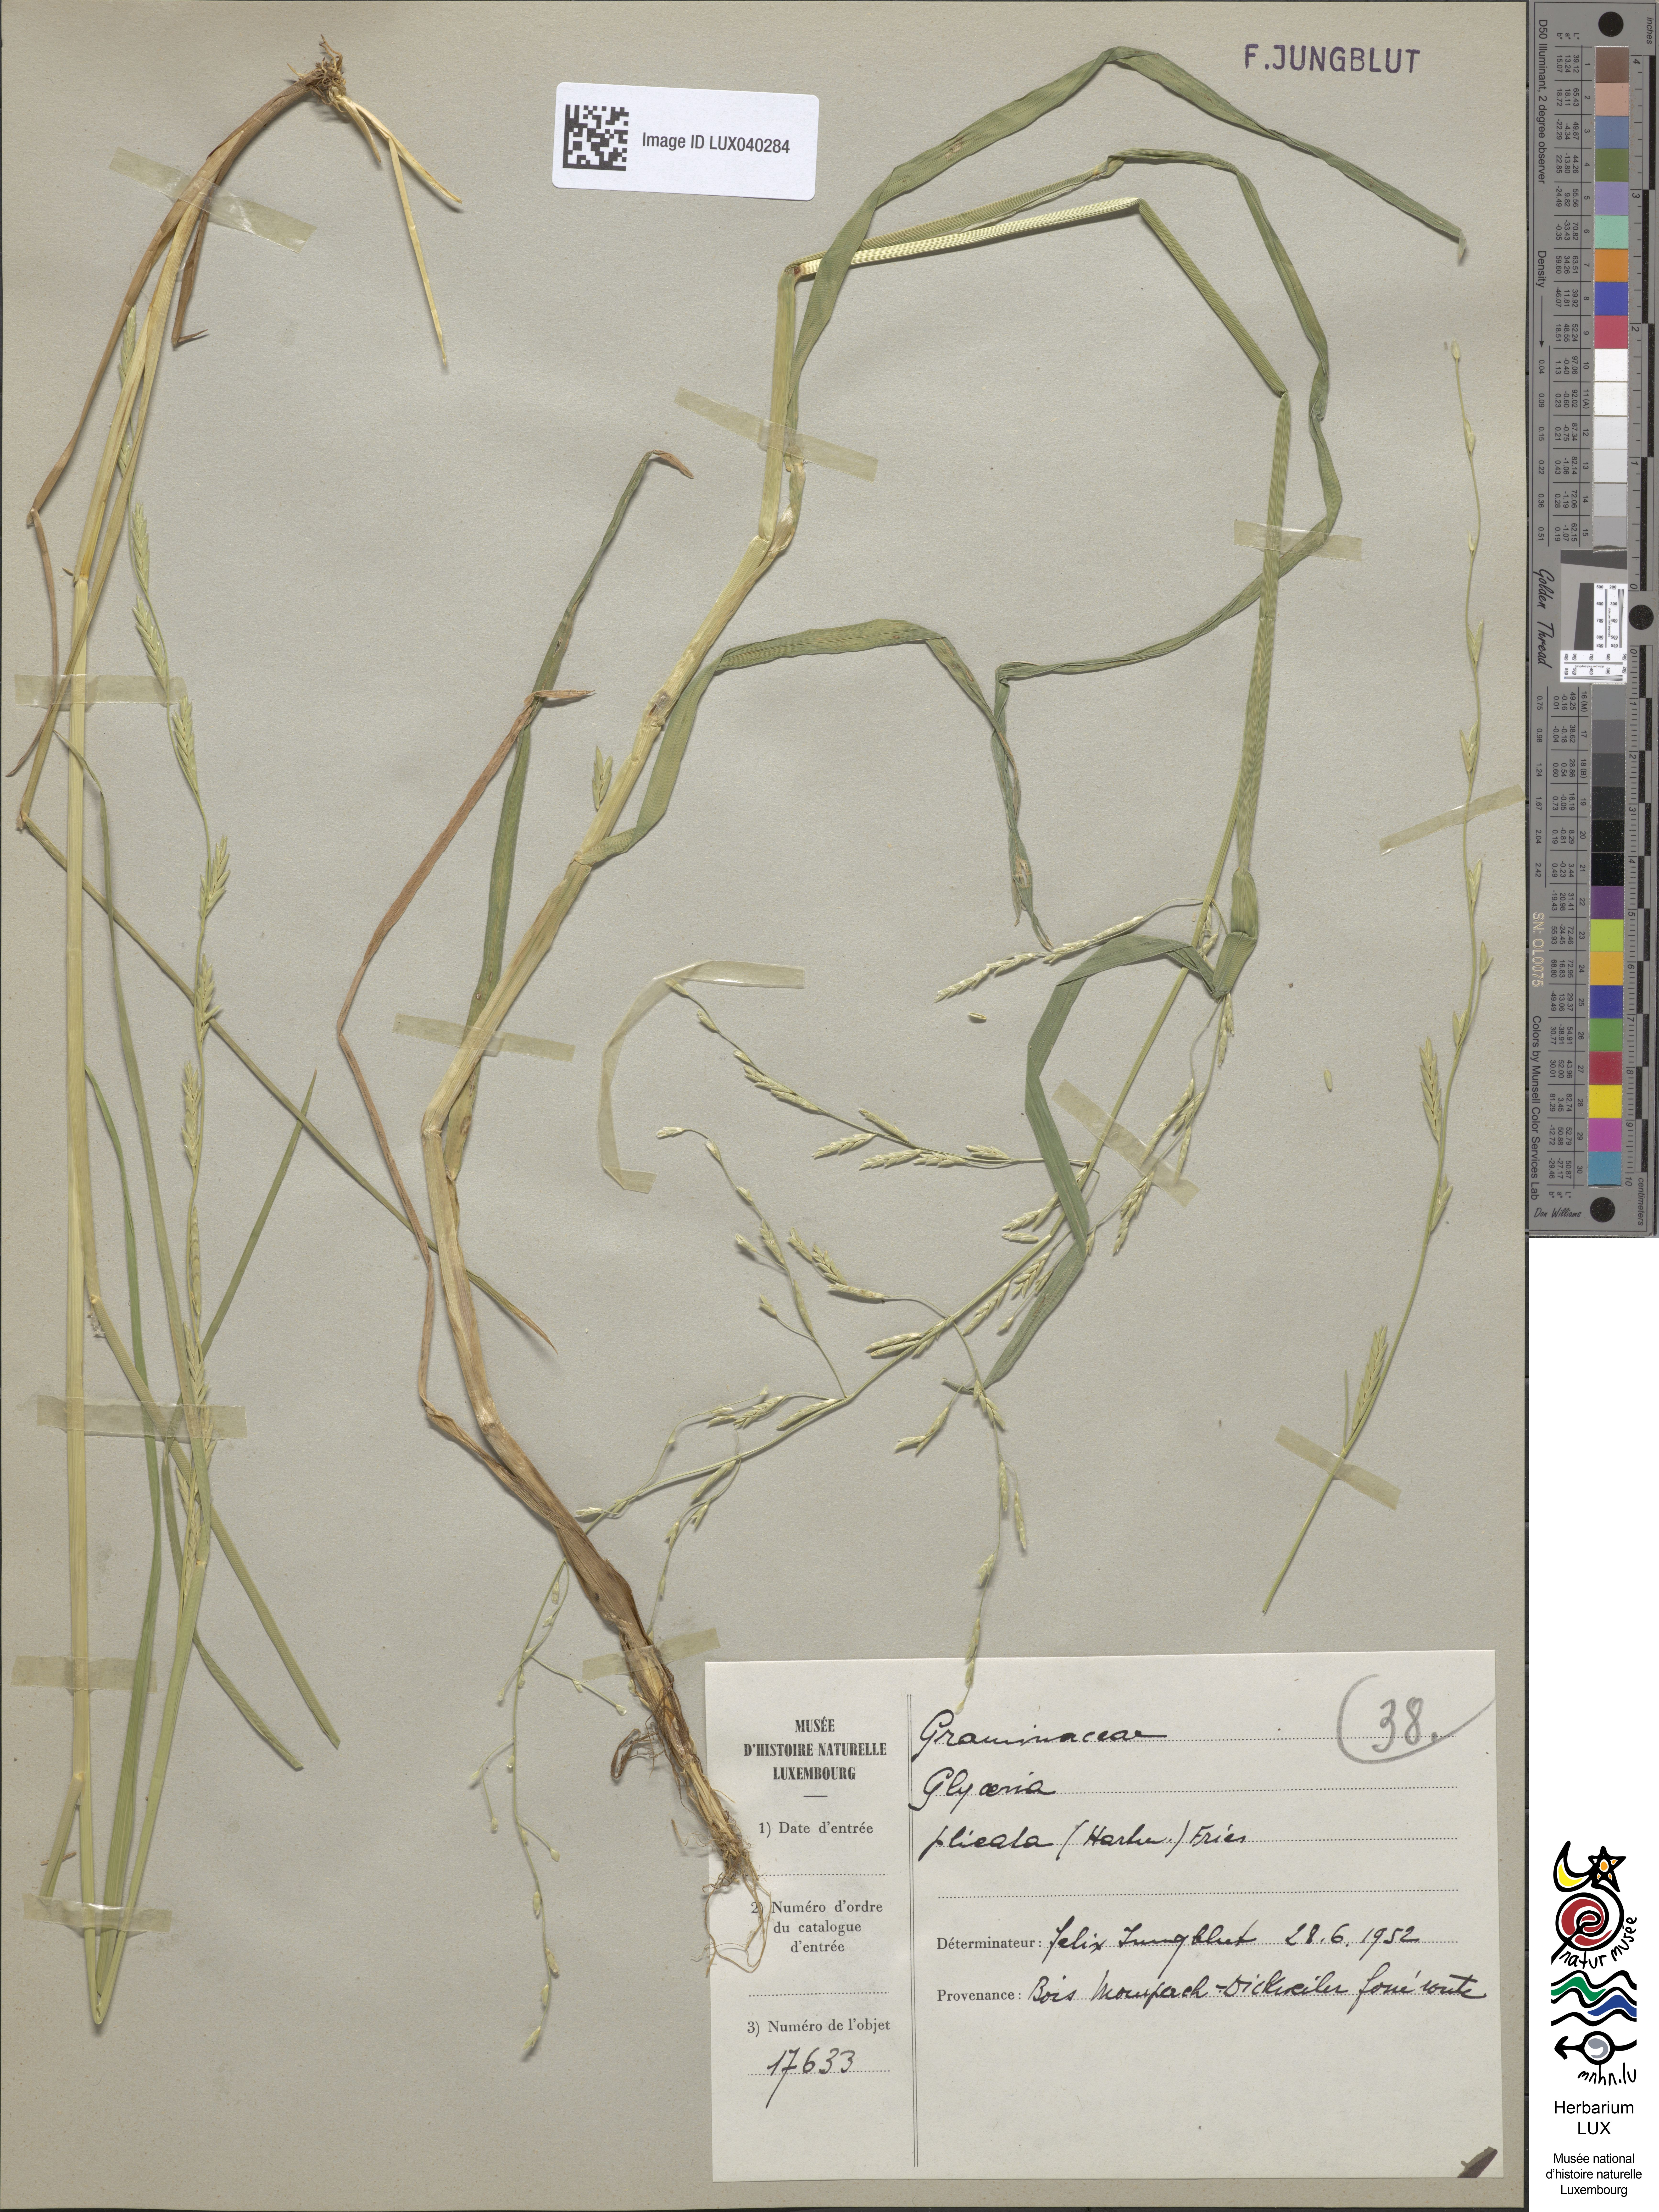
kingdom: Plantae
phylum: Tracheophyta
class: Liliopsida
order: Poales
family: Poaceae
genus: Glyceria
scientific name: Glyceria notata
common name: Plicate sweet-grass
